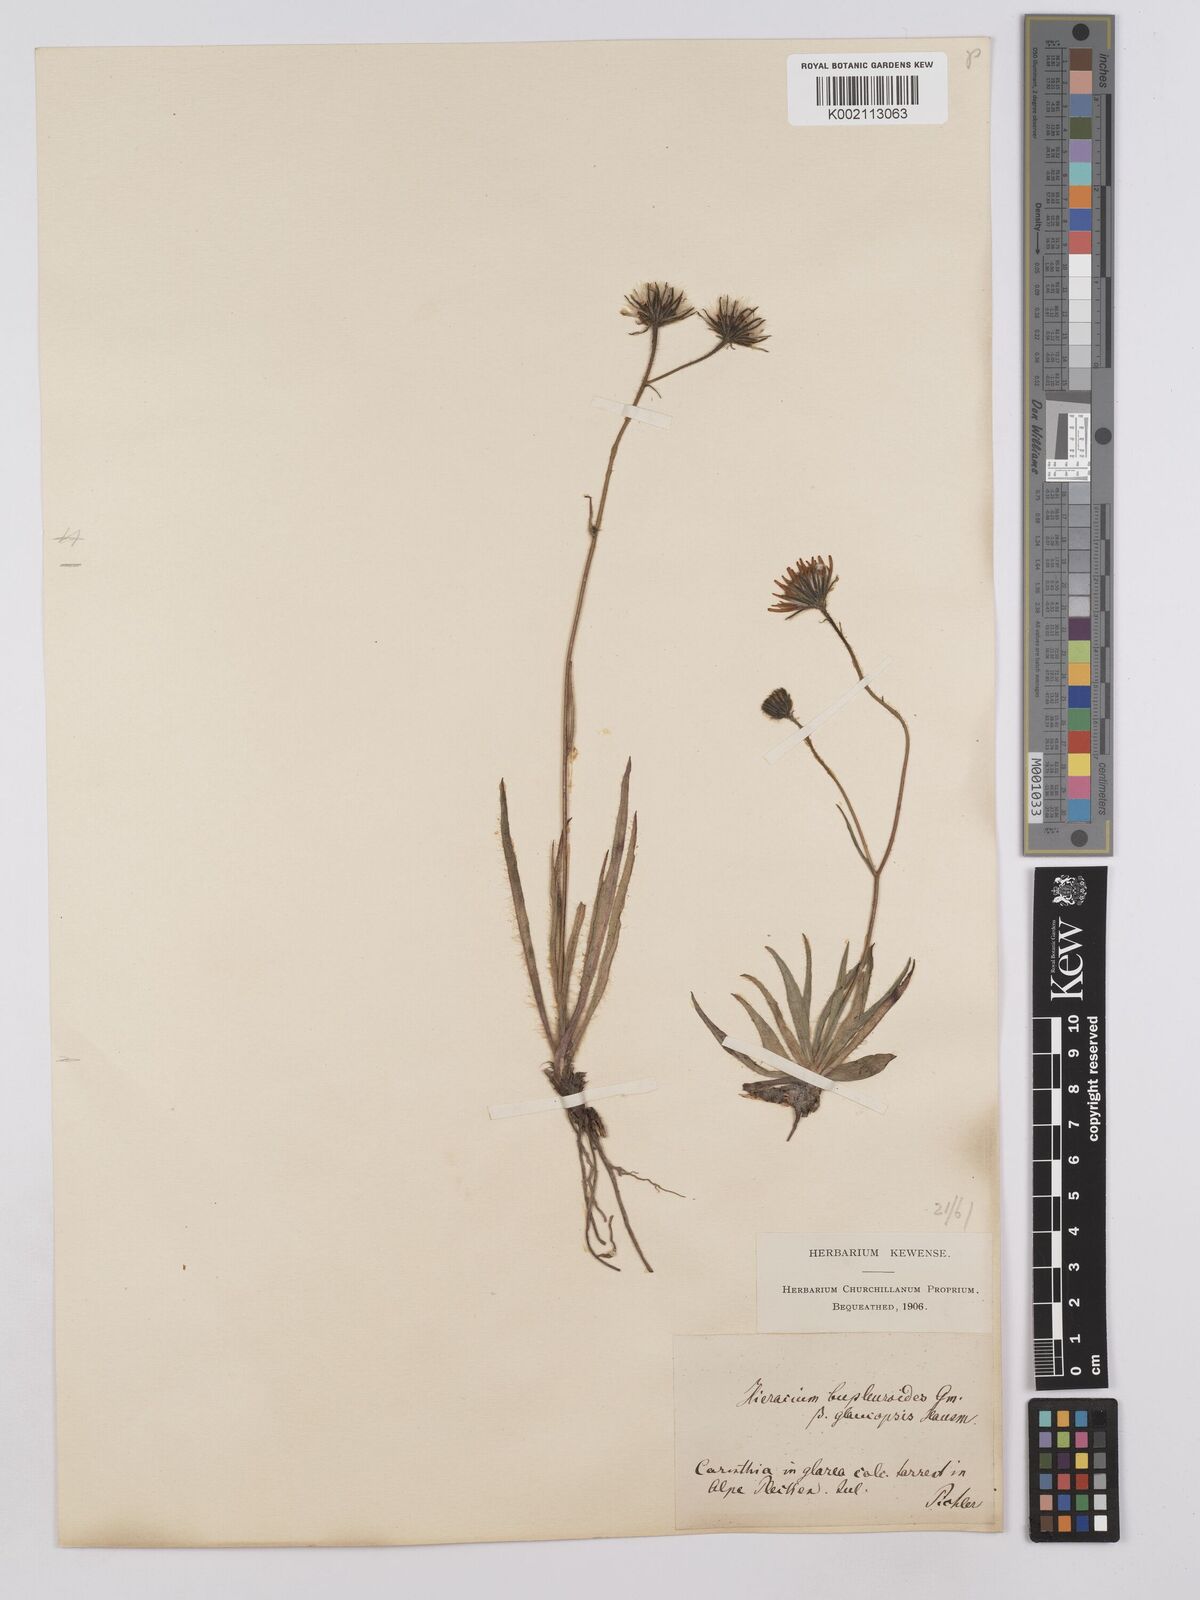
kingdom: Plantae
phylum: Tracheophyta
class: Magnoliopsida
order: Asterales
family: Asteraceae
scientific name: Asteraceae
